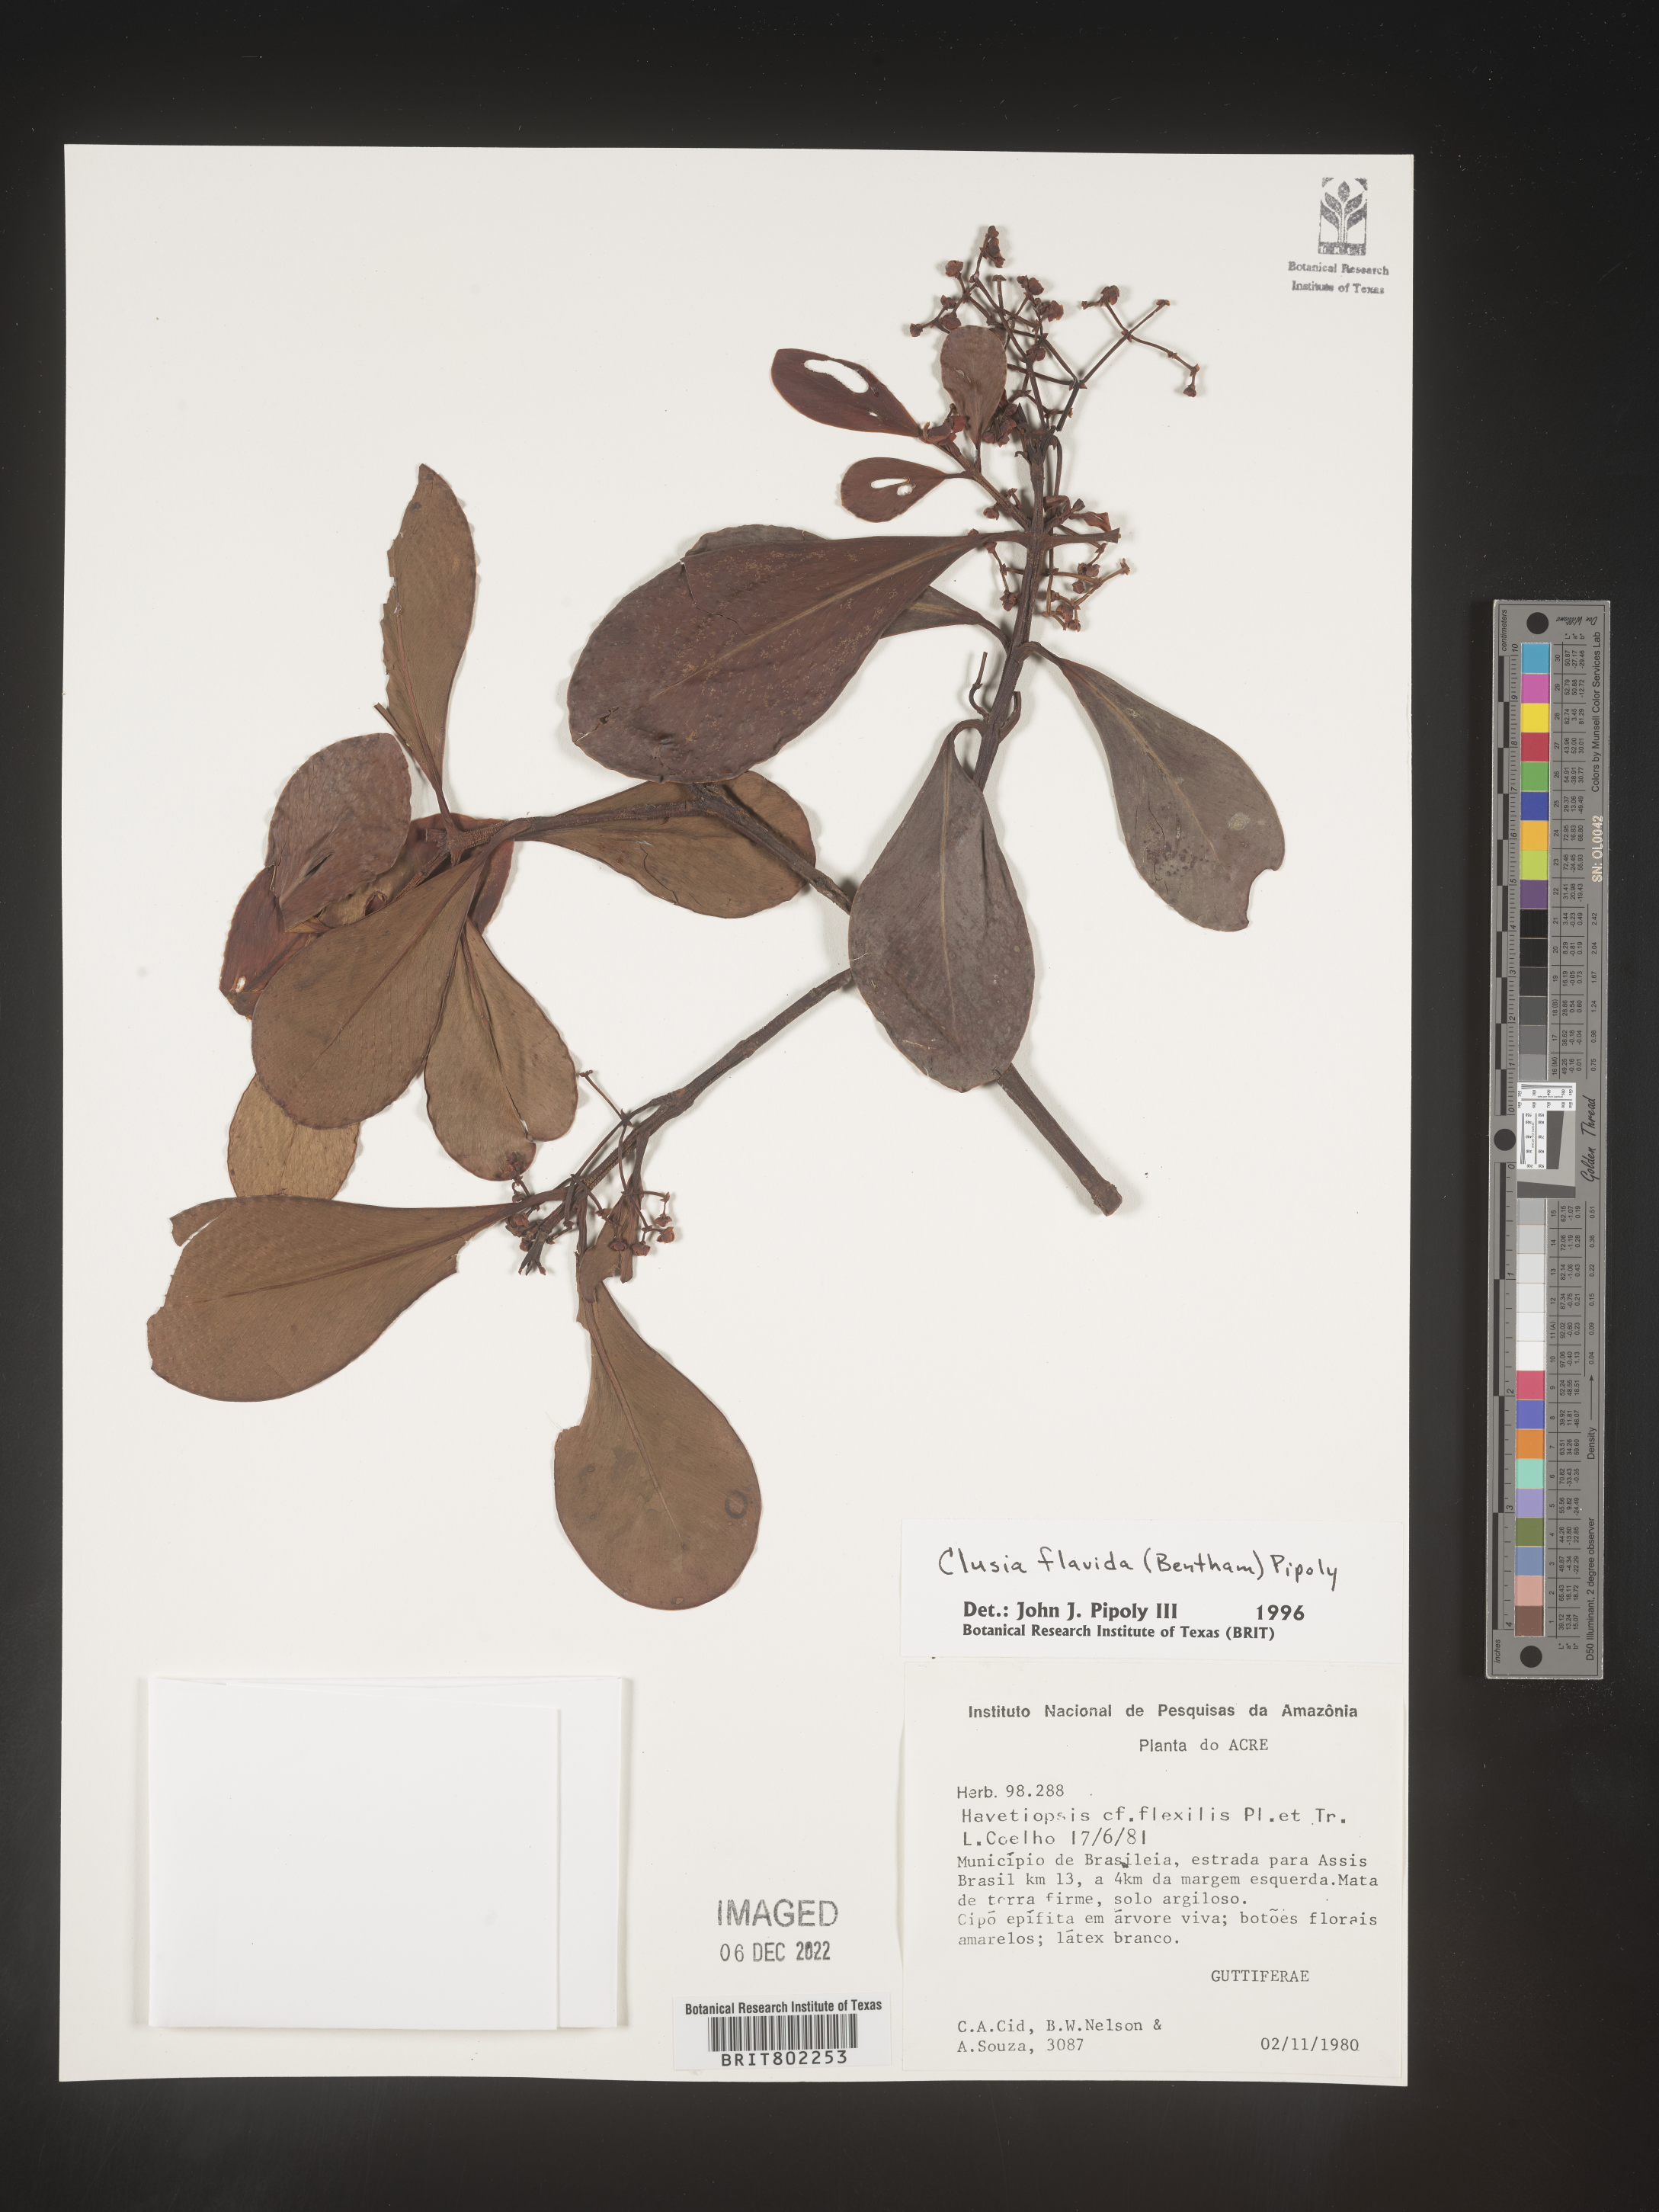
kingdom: Plantae
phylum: Tracheophyta
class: Magnoliopsida
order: Malpighiales
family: Clusiaceae
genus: Clusia
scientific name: Clusia flavida
